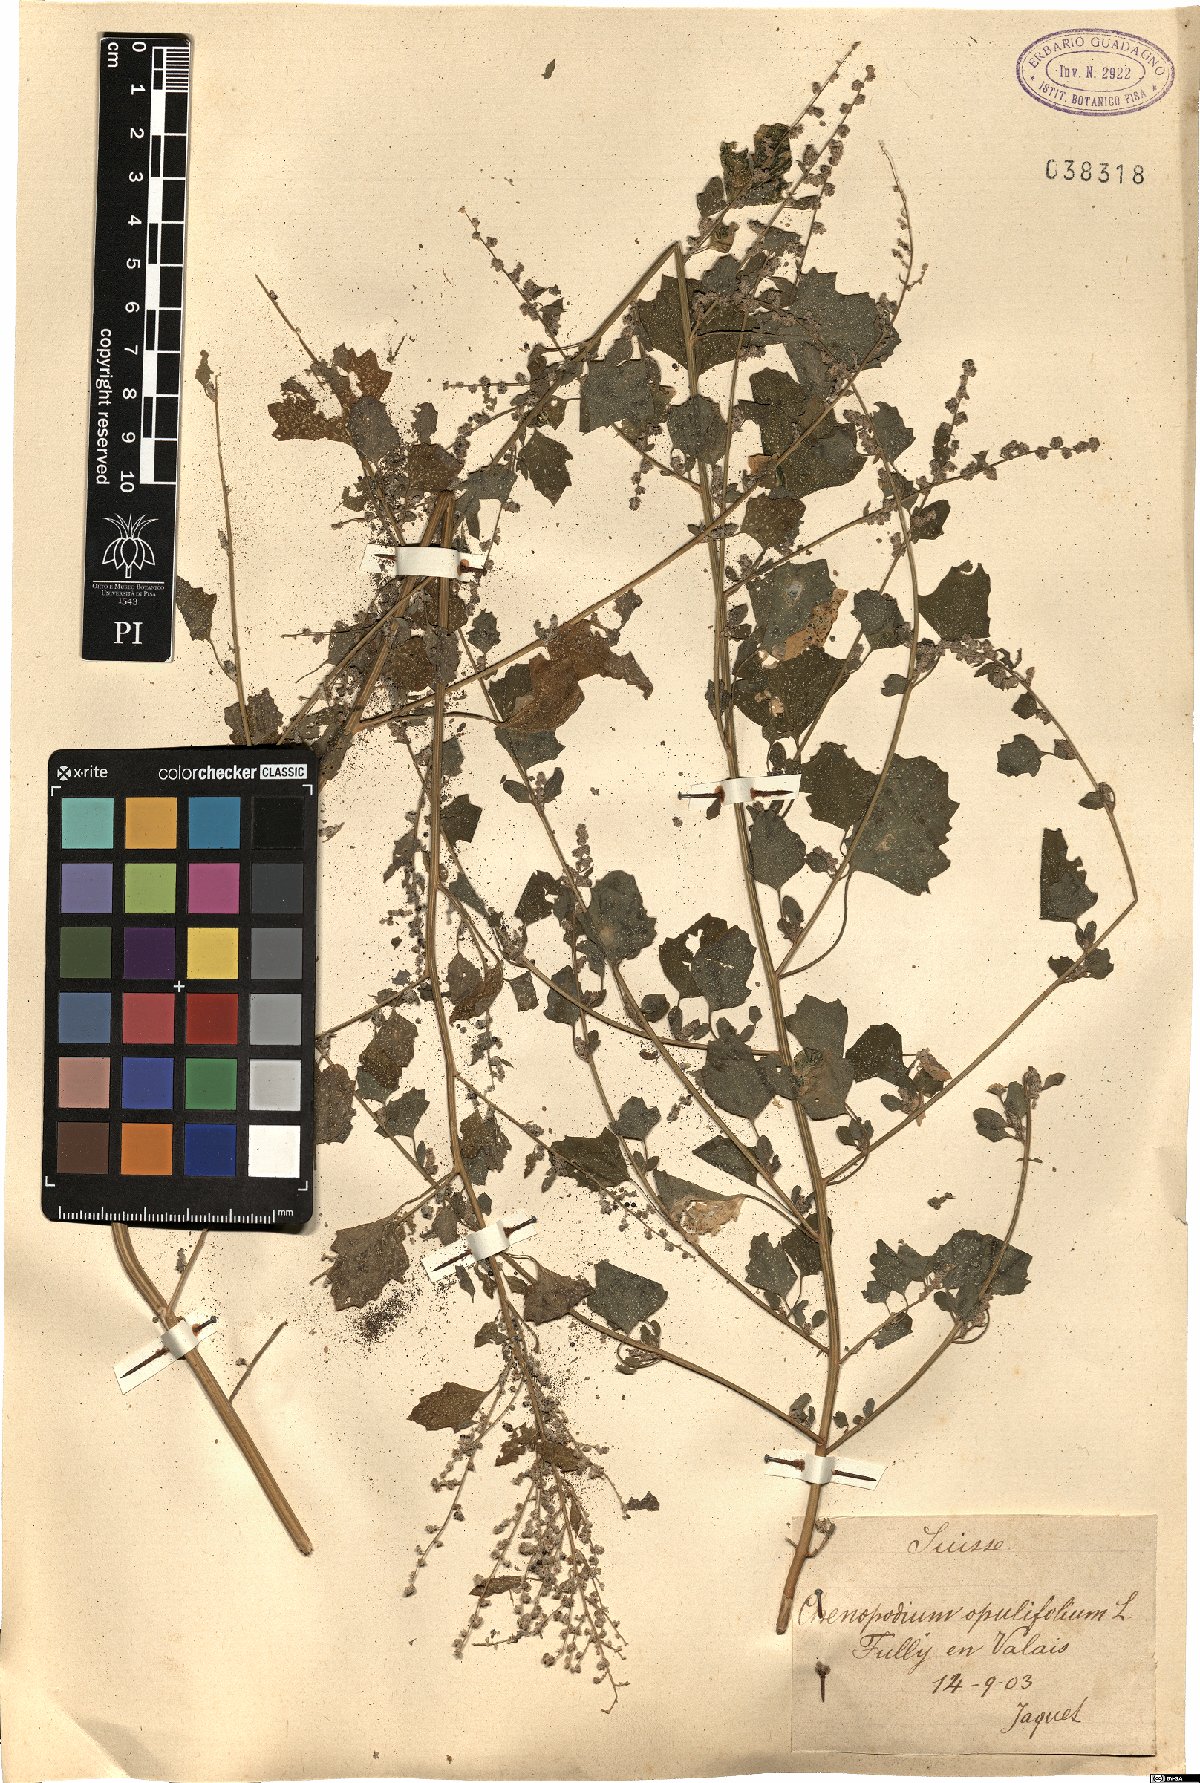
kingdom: Plantae
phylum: Tracheophyta
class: Magnoliopsida
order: Caryophyllales
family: Amaranthaceae
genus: Chenopodium
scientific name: Chenopodium opulifolium
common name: Grey goosefoot
